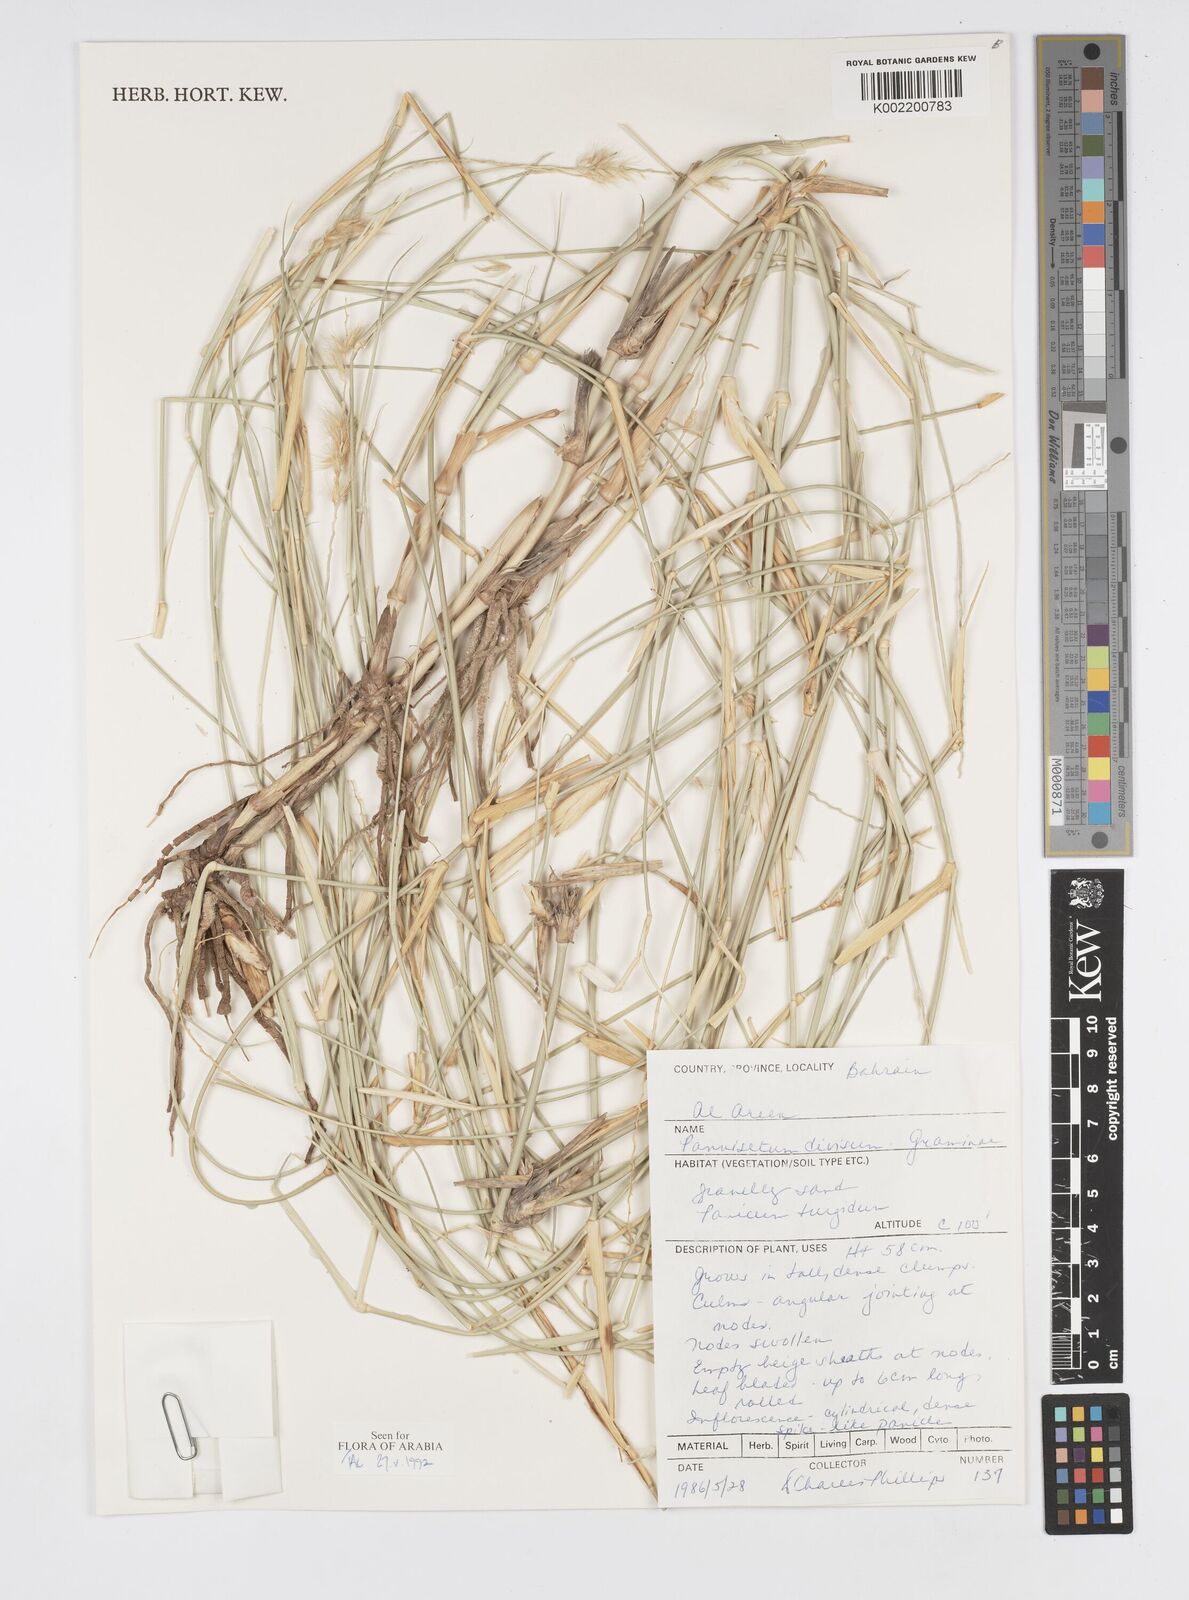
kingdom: Plantae
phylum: Tracheophyta
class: Liliopsida
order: Poales
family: Poaceae
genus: Cenchrus
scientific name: Cenchrus divisus
